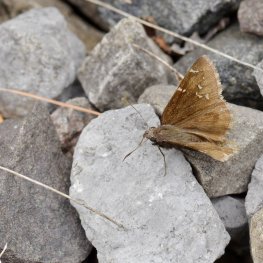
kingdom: Animalia
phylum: Arthropoda
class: Insecta
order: Lepidoptera
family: Hesperiidae
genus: Autochton
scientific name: Autochton
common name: Northern Cloudywing
